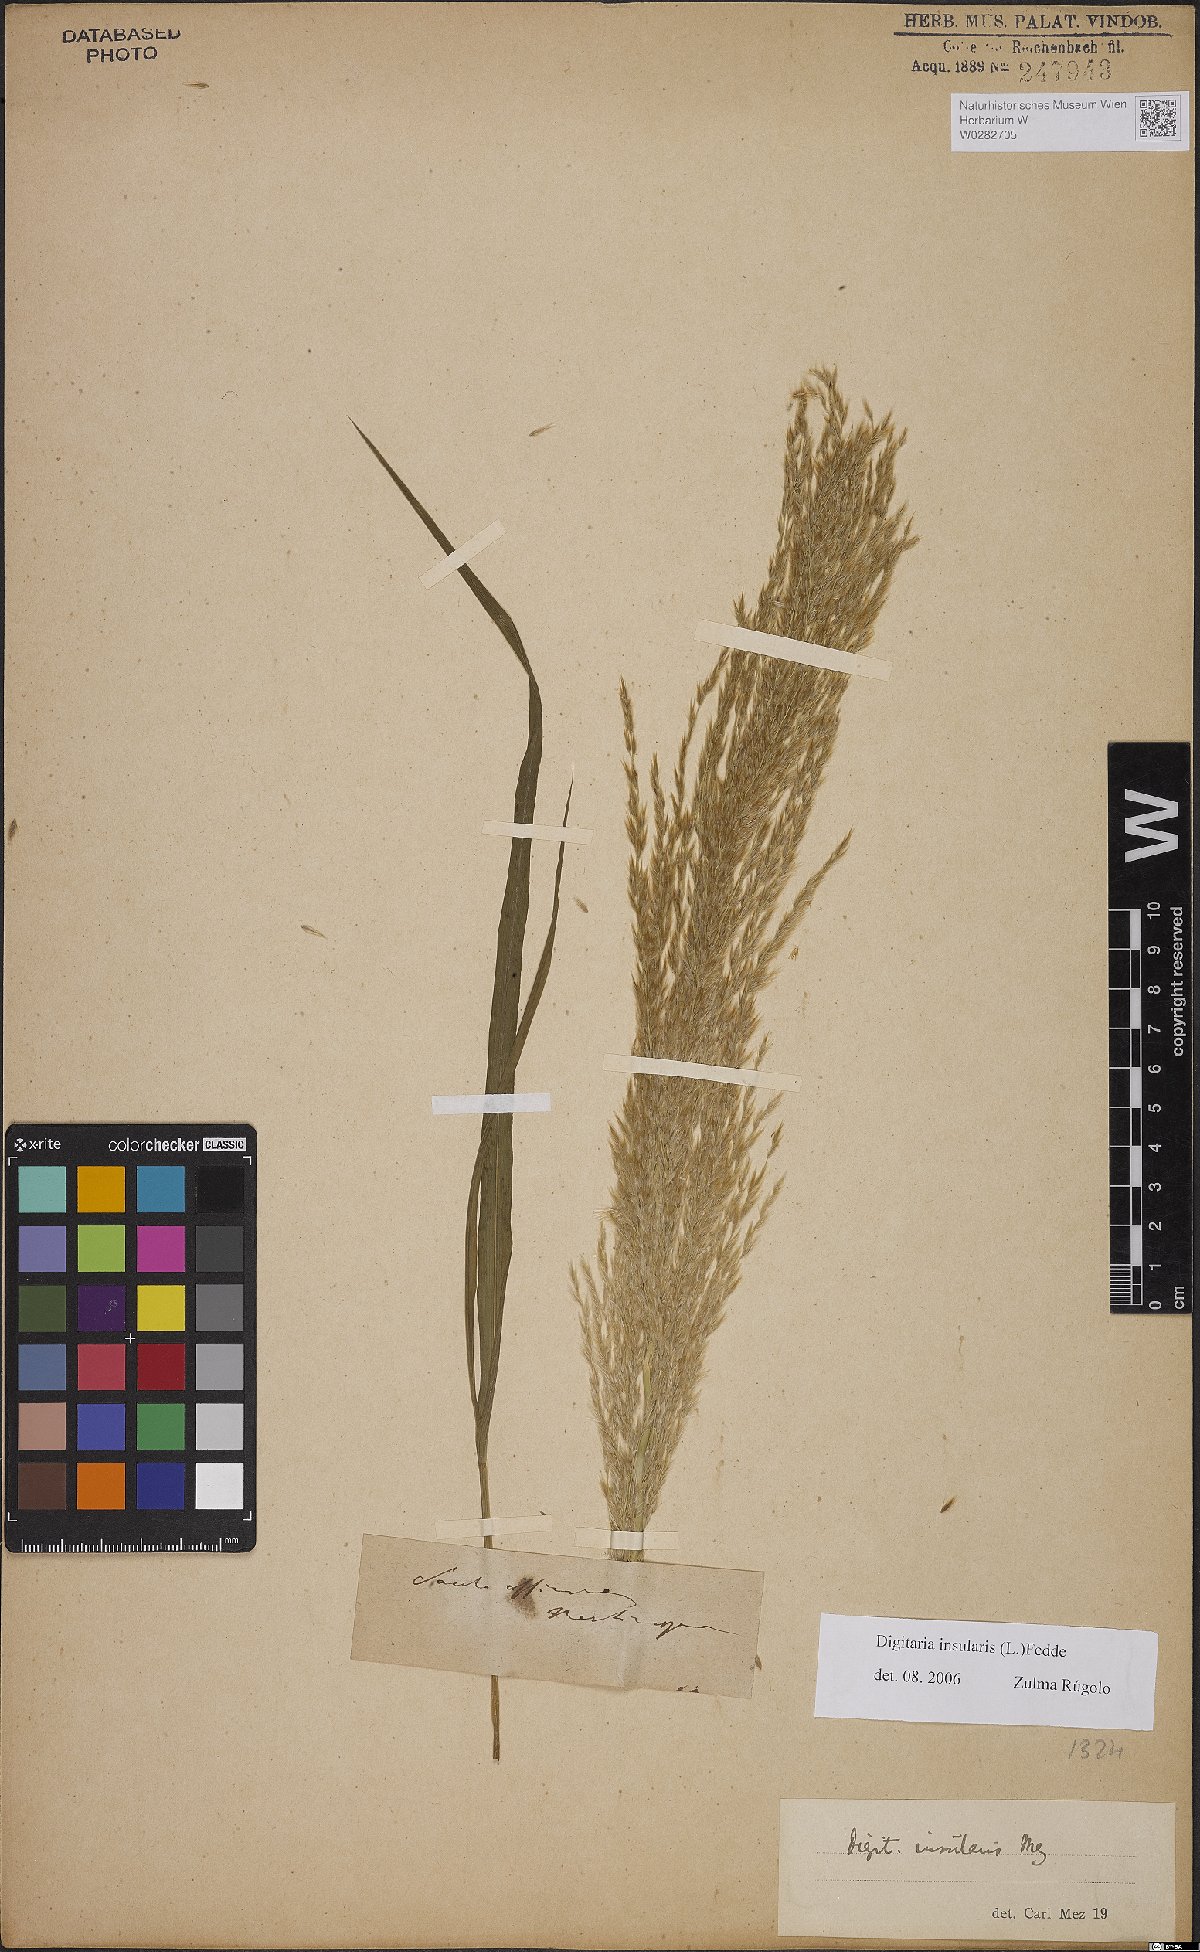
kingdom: Plantae
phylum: Tracheophyta
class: Liliopsida
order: Poales
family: Poaceae
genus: Digitaria
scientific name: Digitaria insularis
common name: Sourgrass
